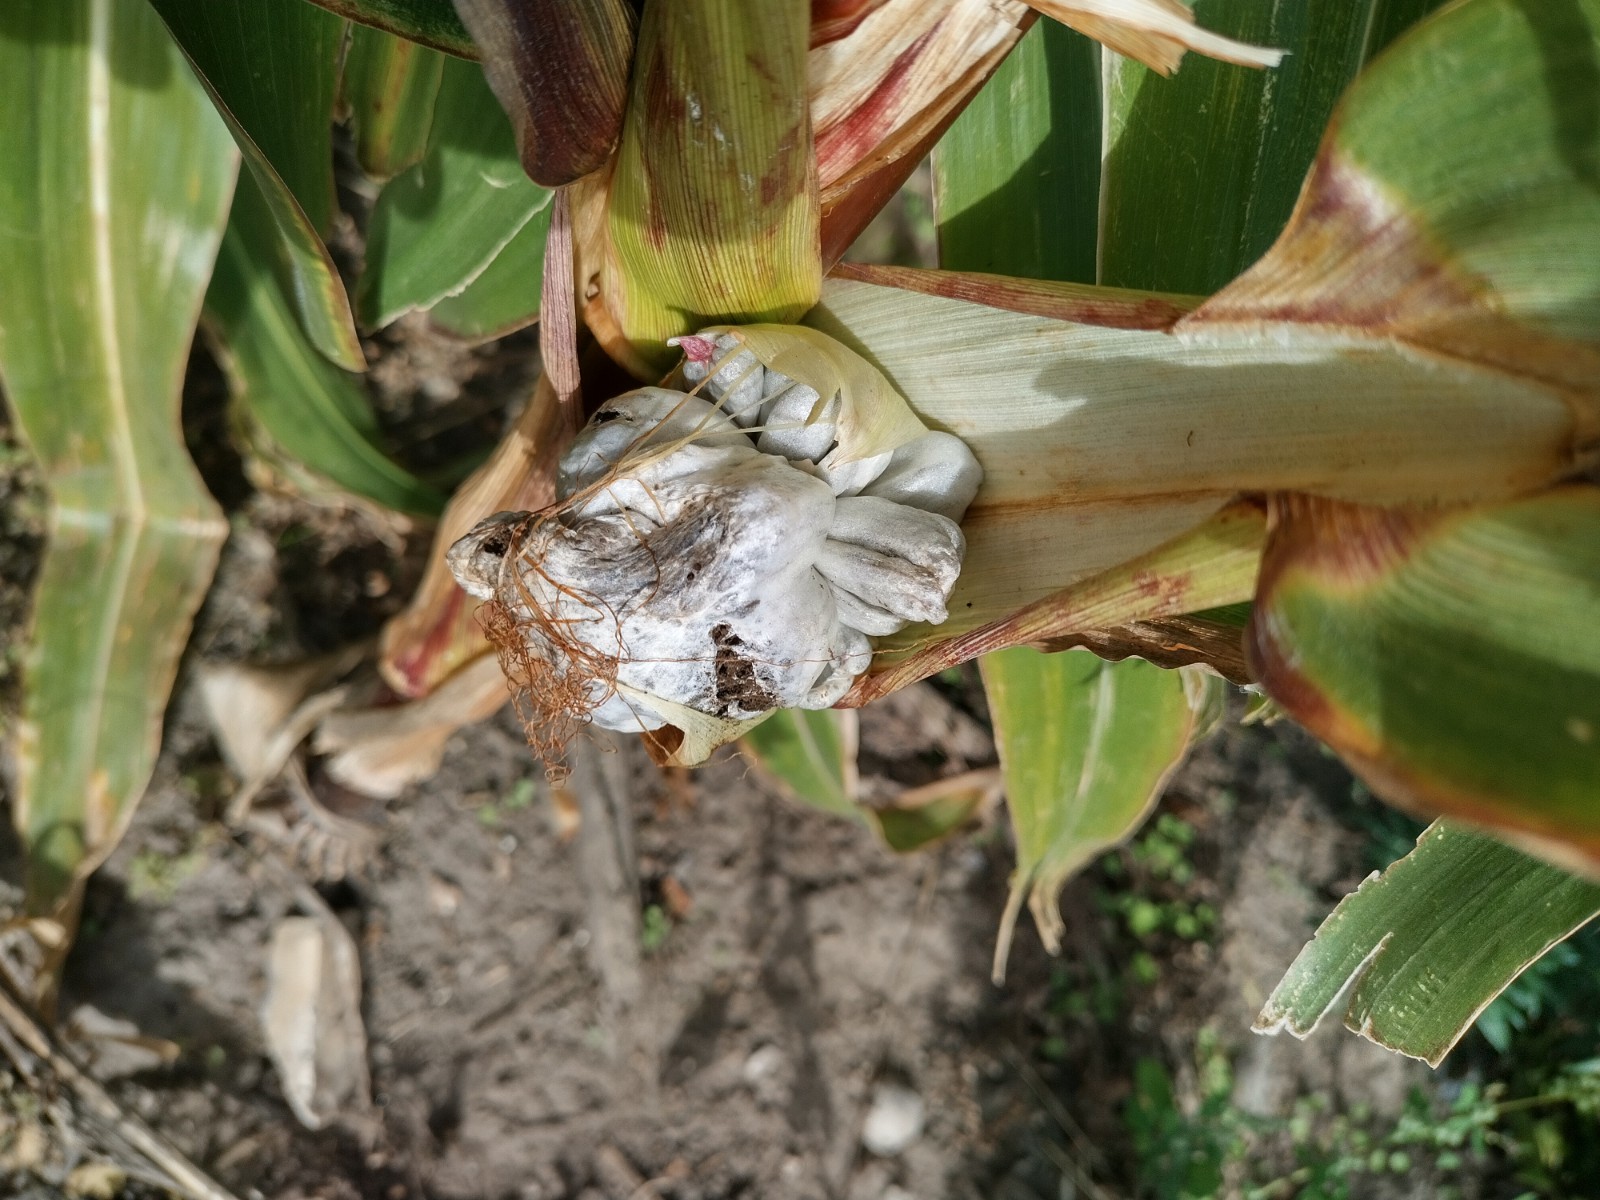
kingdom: Fungi
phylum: Basidiomycota
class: Ustilaginomycetes
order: Ustilaginales
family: Ustilaginaceae
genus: Mycosarcoma
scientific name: Mycosarcoma maydis
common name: majs-brand
